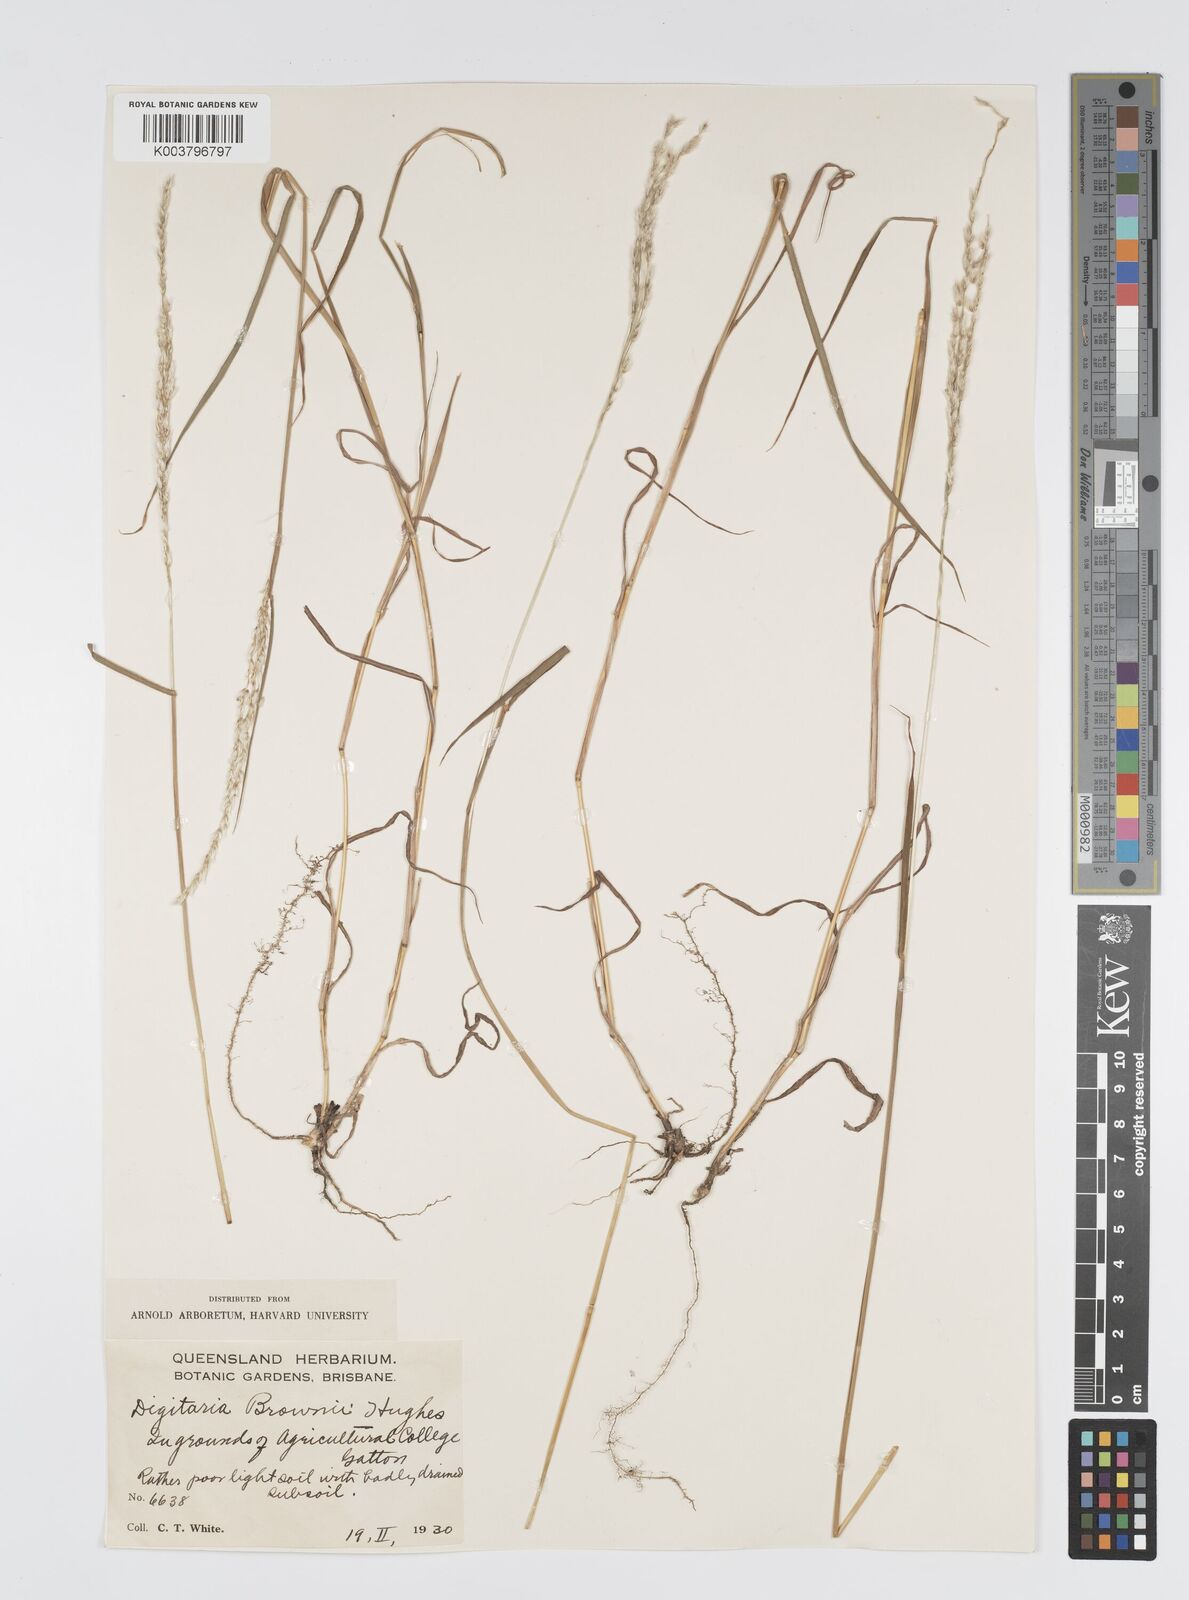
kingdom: Plantae
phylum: Tracheophyta
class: Liliopsida
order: Poales
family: Poaceae
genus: Digitaria
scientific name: Digitaria brownii
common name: Cotton grass
